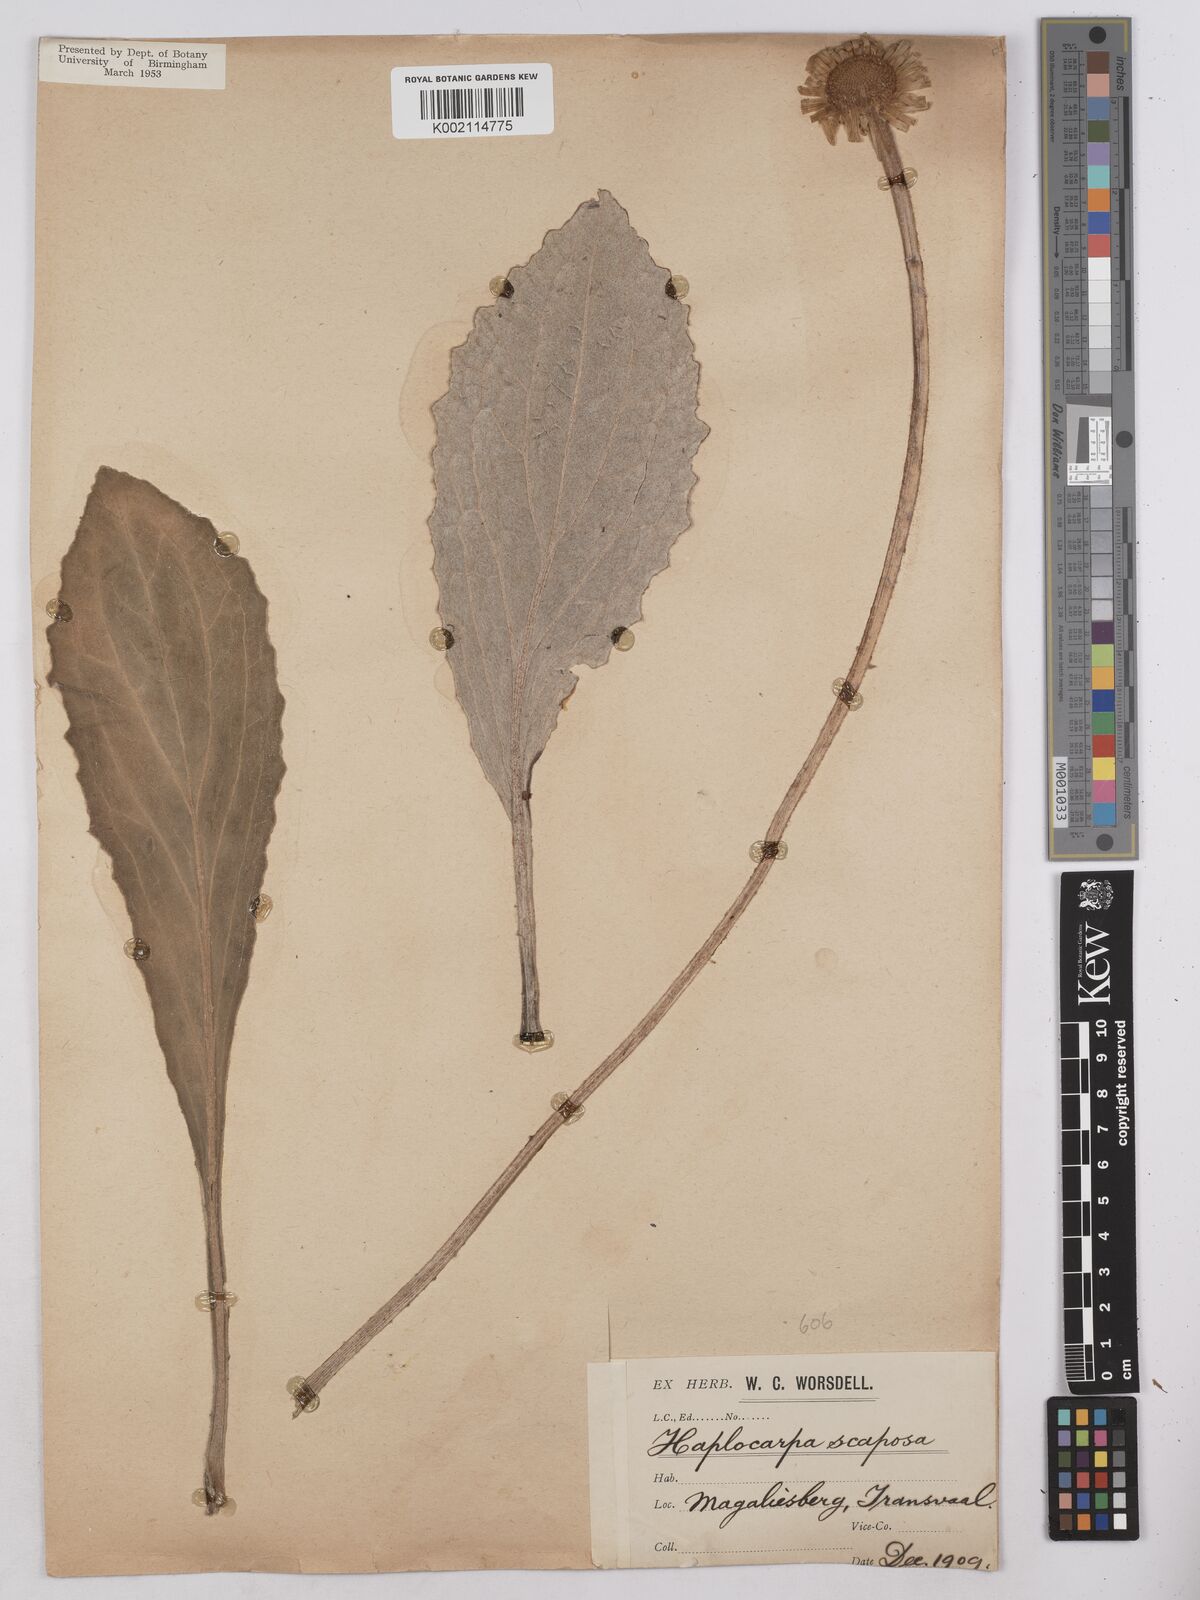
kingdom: Plantae
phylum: Tracheophyta
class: Magnoliopsida
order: Asterales
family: Asteraceae
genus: Haplocarpha
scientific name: Haplocarpha scaposa
